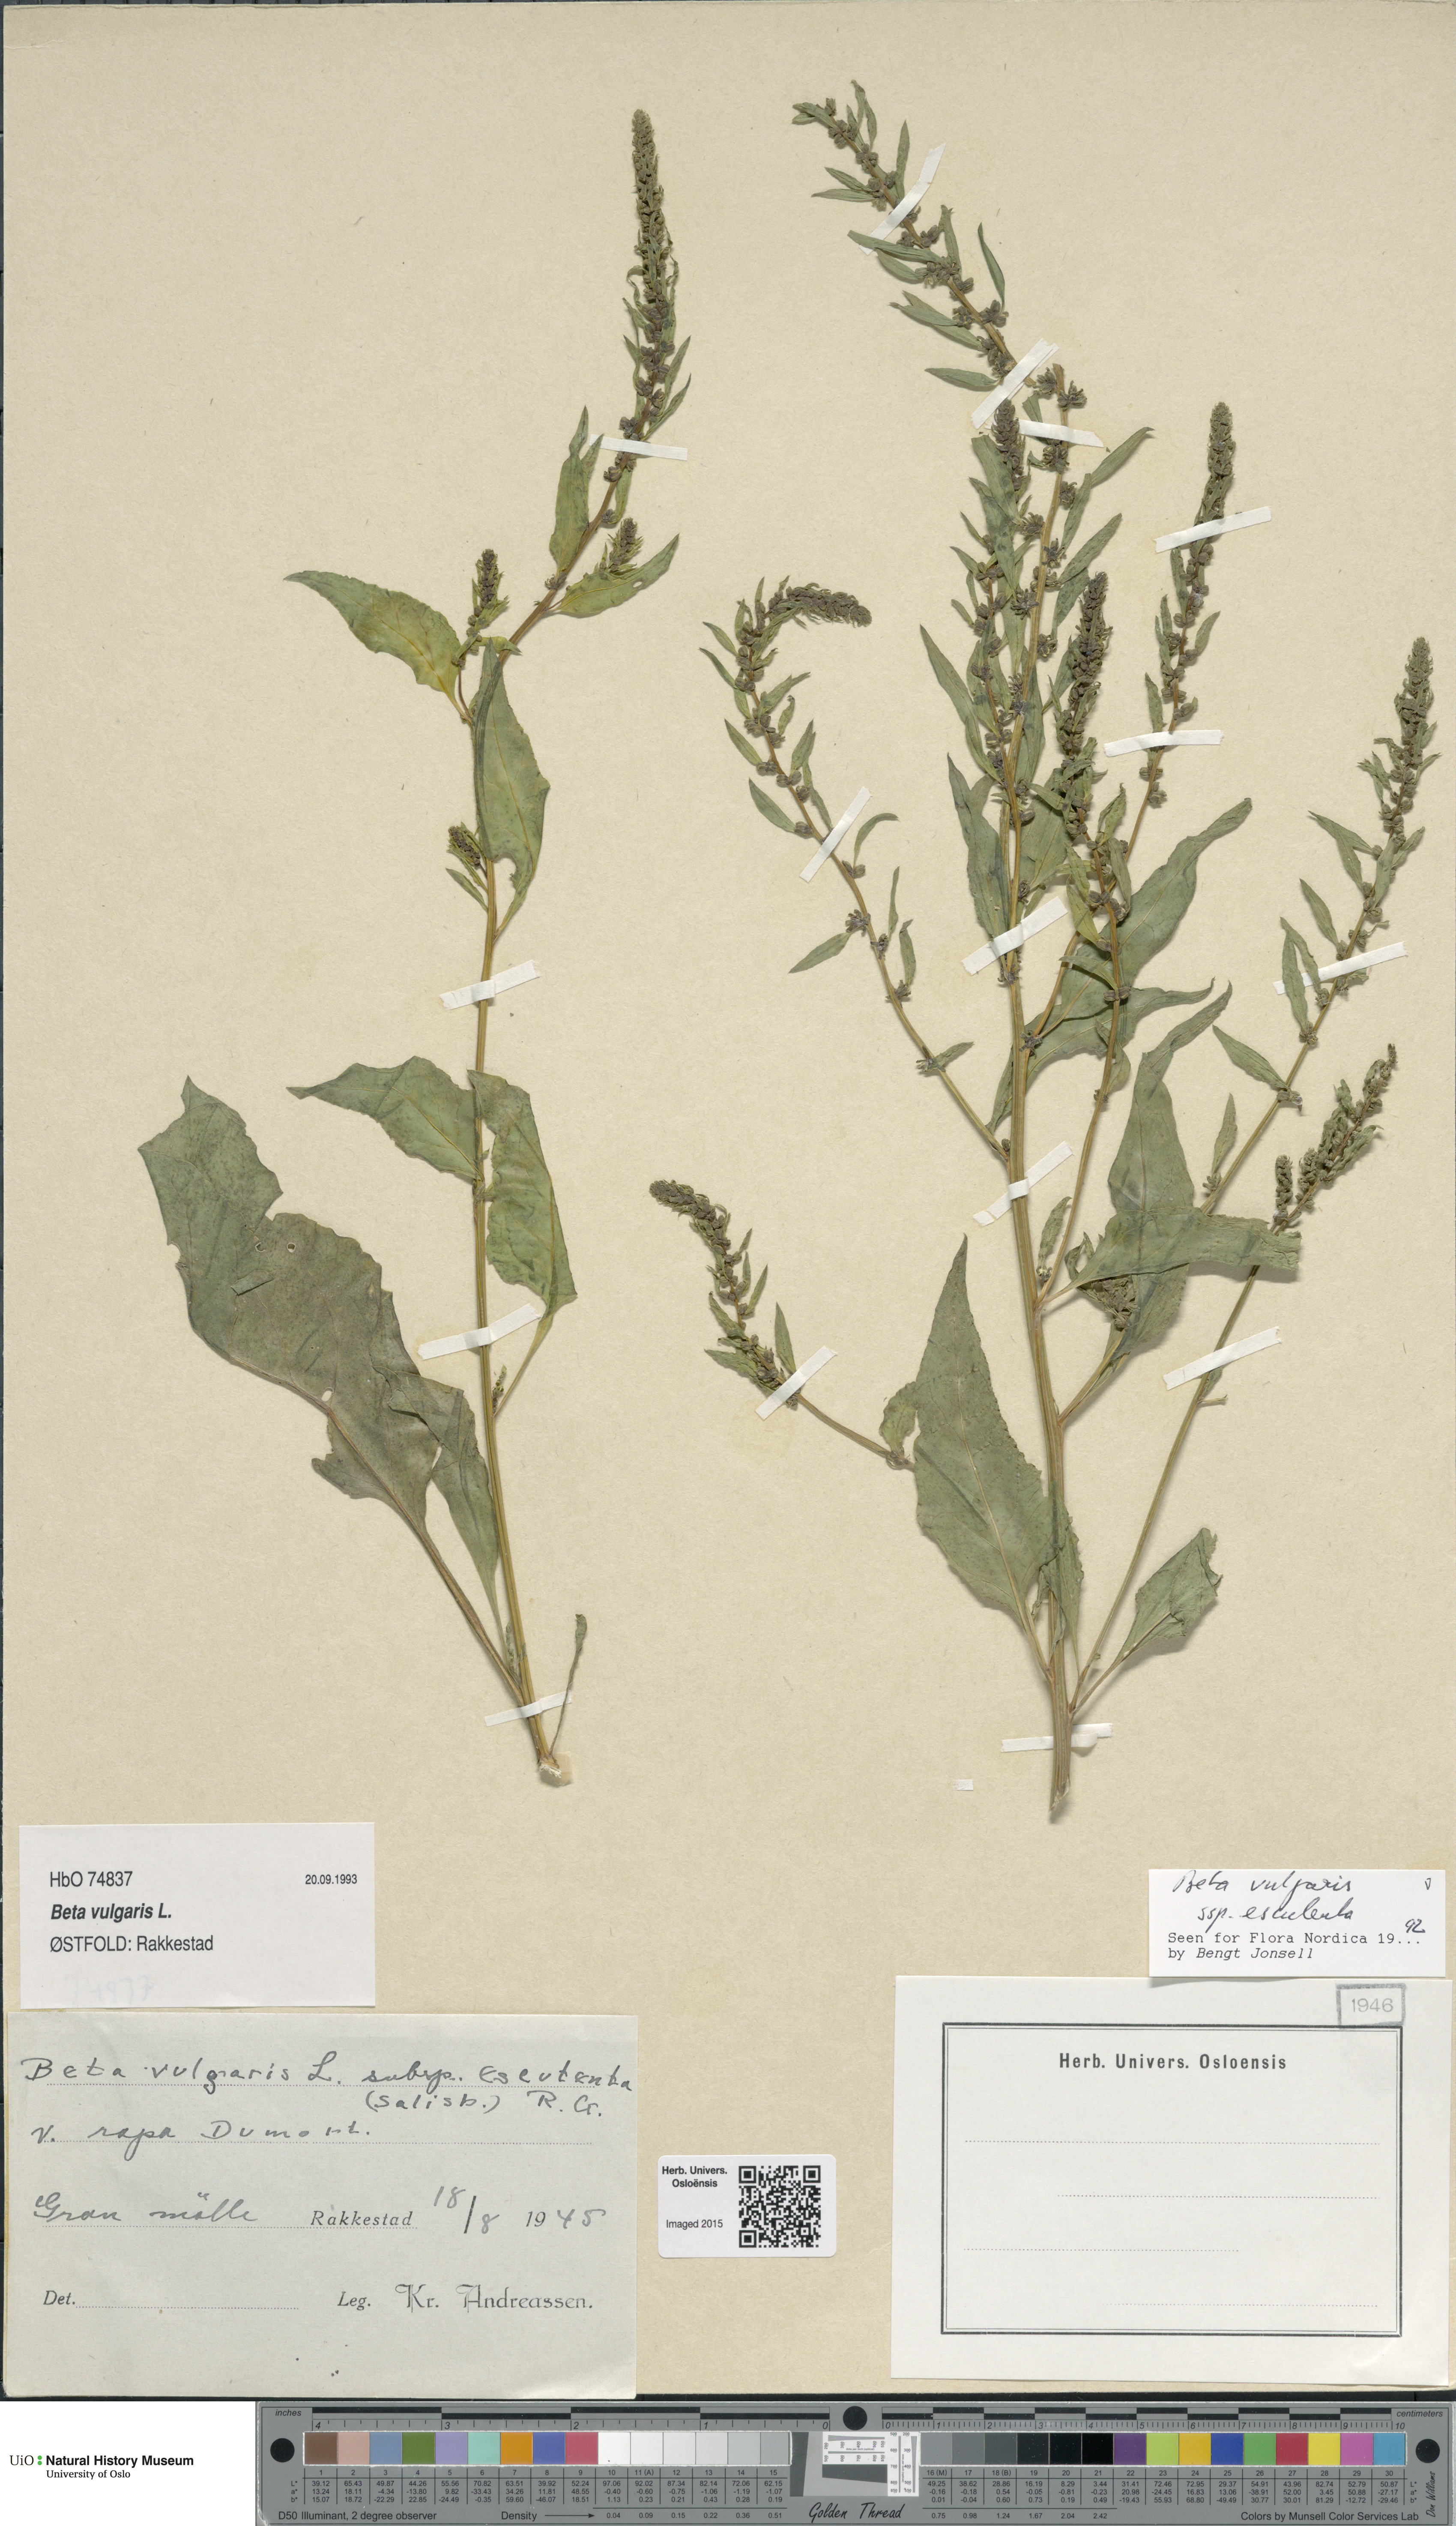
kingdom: Plantae
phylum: Tracheophyta
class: Magnoliopsida
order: Caryophyllales
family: Amaranthaceae
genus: Beta
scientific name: Beta vulgaris
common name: Beet
